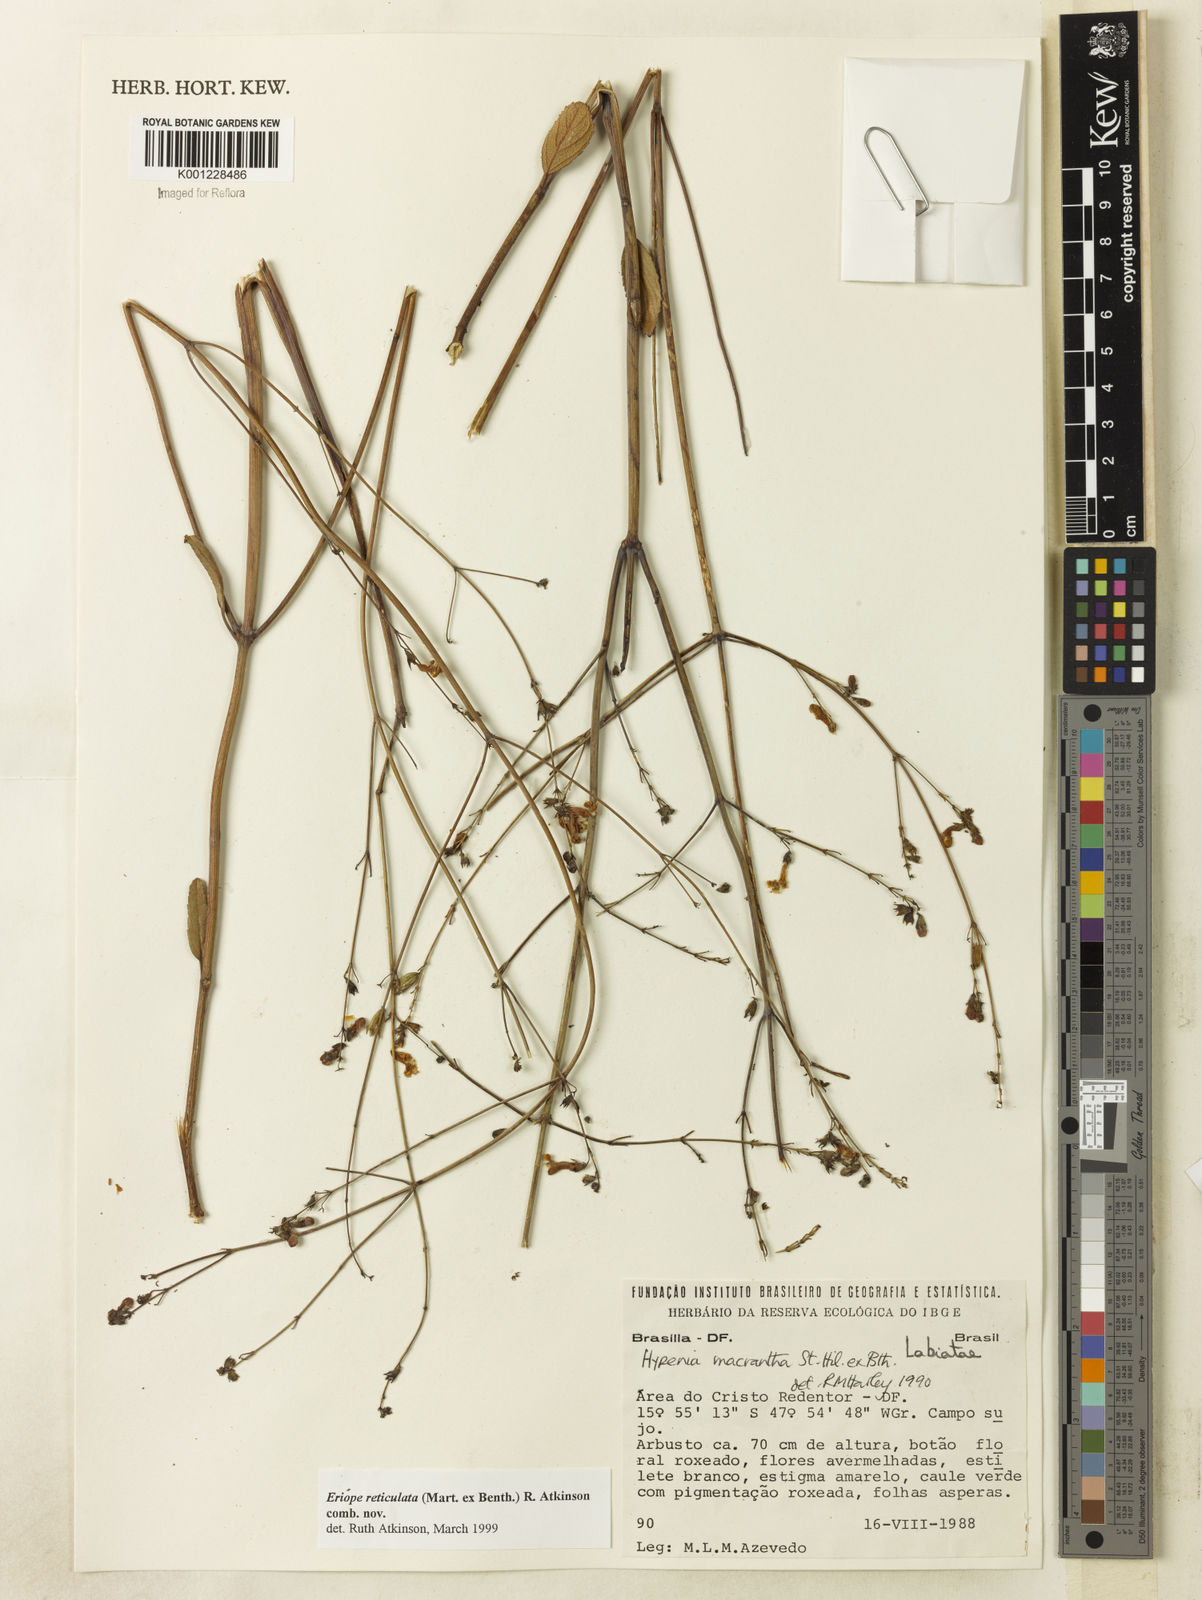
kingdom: Plantae
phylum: Tracheophyta
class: Magnoliopsida
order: Lamiales
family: Lamiaceae
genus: Hypenia
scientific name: Hypenia reticulata
